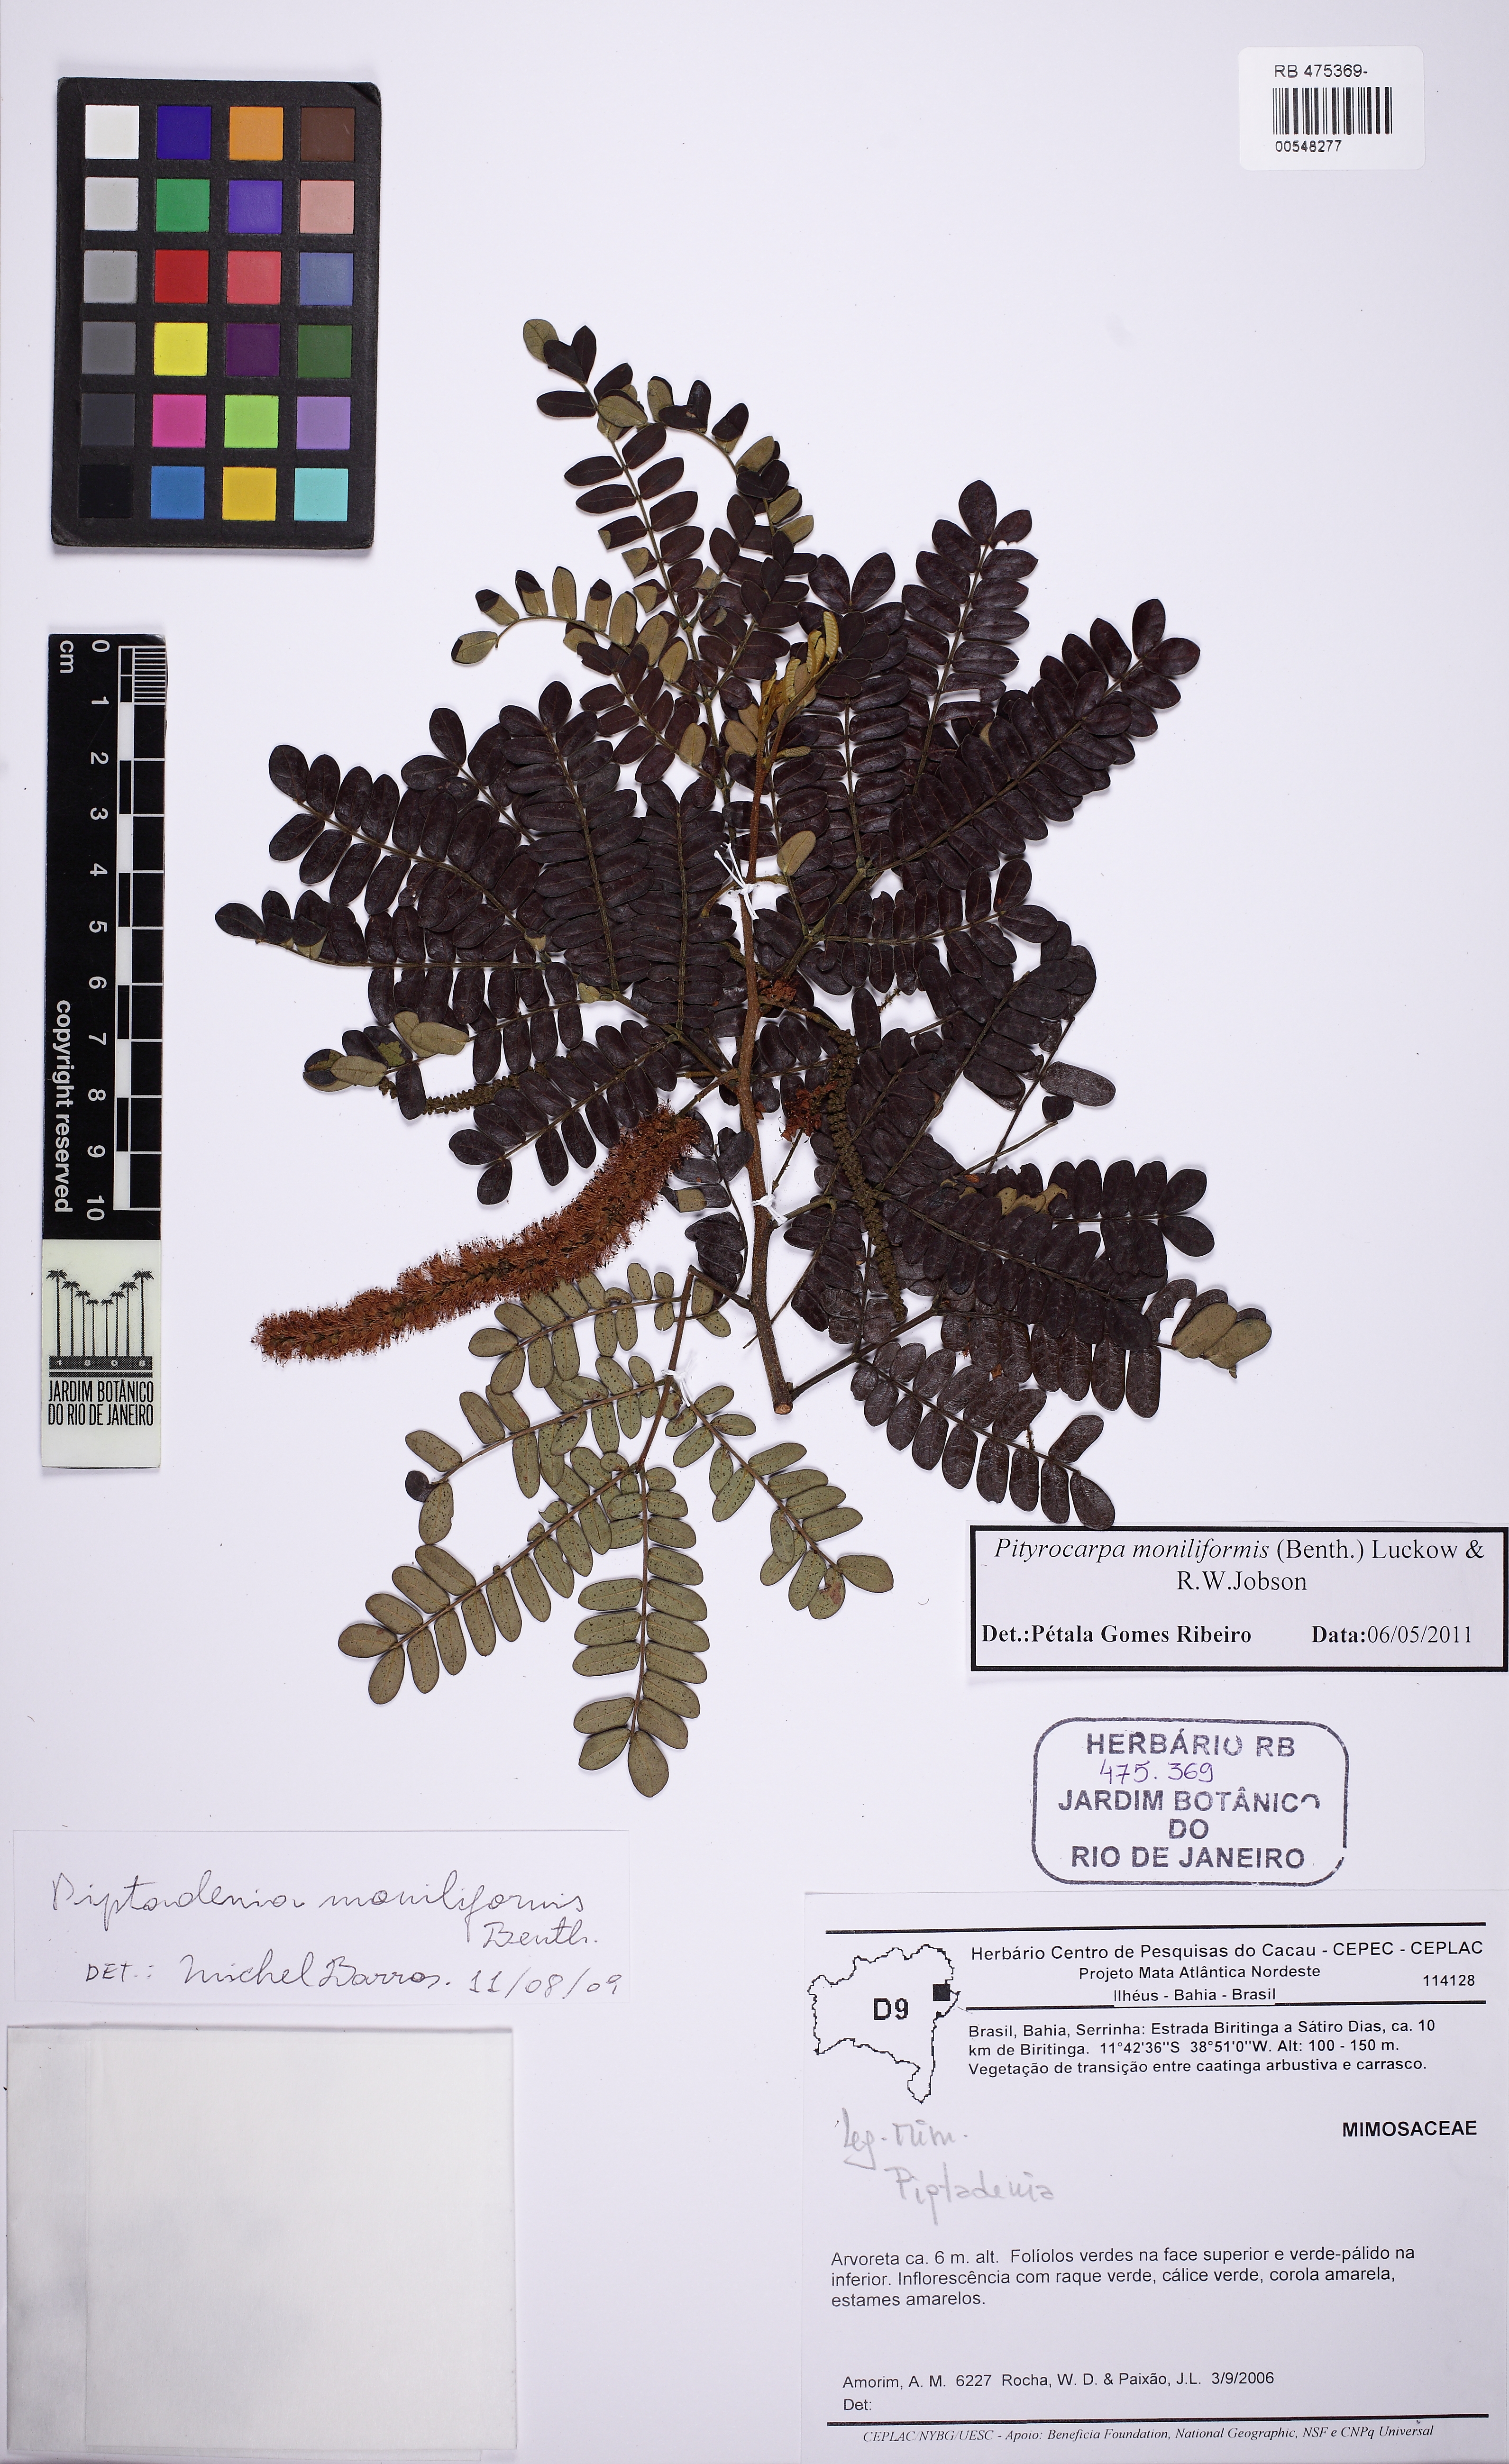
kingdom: Plantae
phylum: Tracheophyta
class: Magnoliopsida
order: Fabales
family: Fabaceae
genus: Pityrocarpa
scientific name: Pityrocarpa moniliformis
